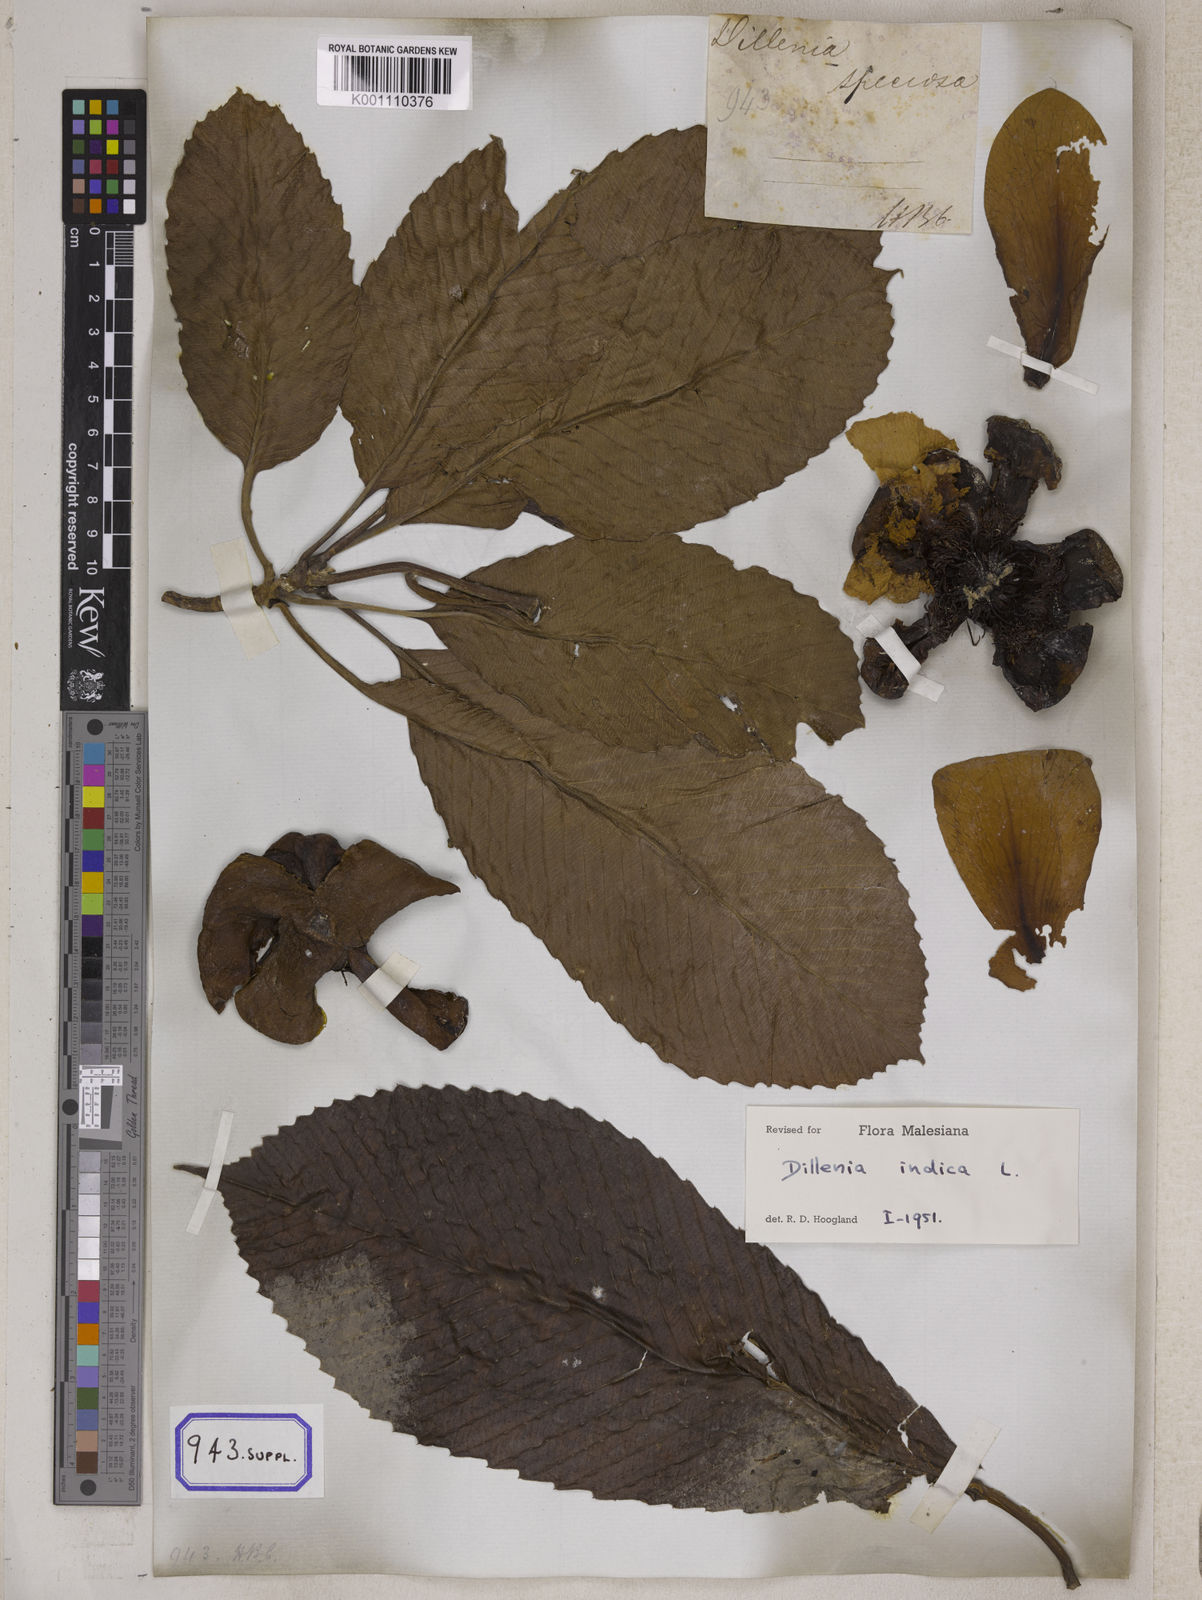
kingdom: Plantae
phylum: Tracheophyta
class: Magnoliopsida
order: Dilleniales
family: Dilleniaceae
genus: Dillenia
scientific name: Dillenia indica
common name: Elephant apple
